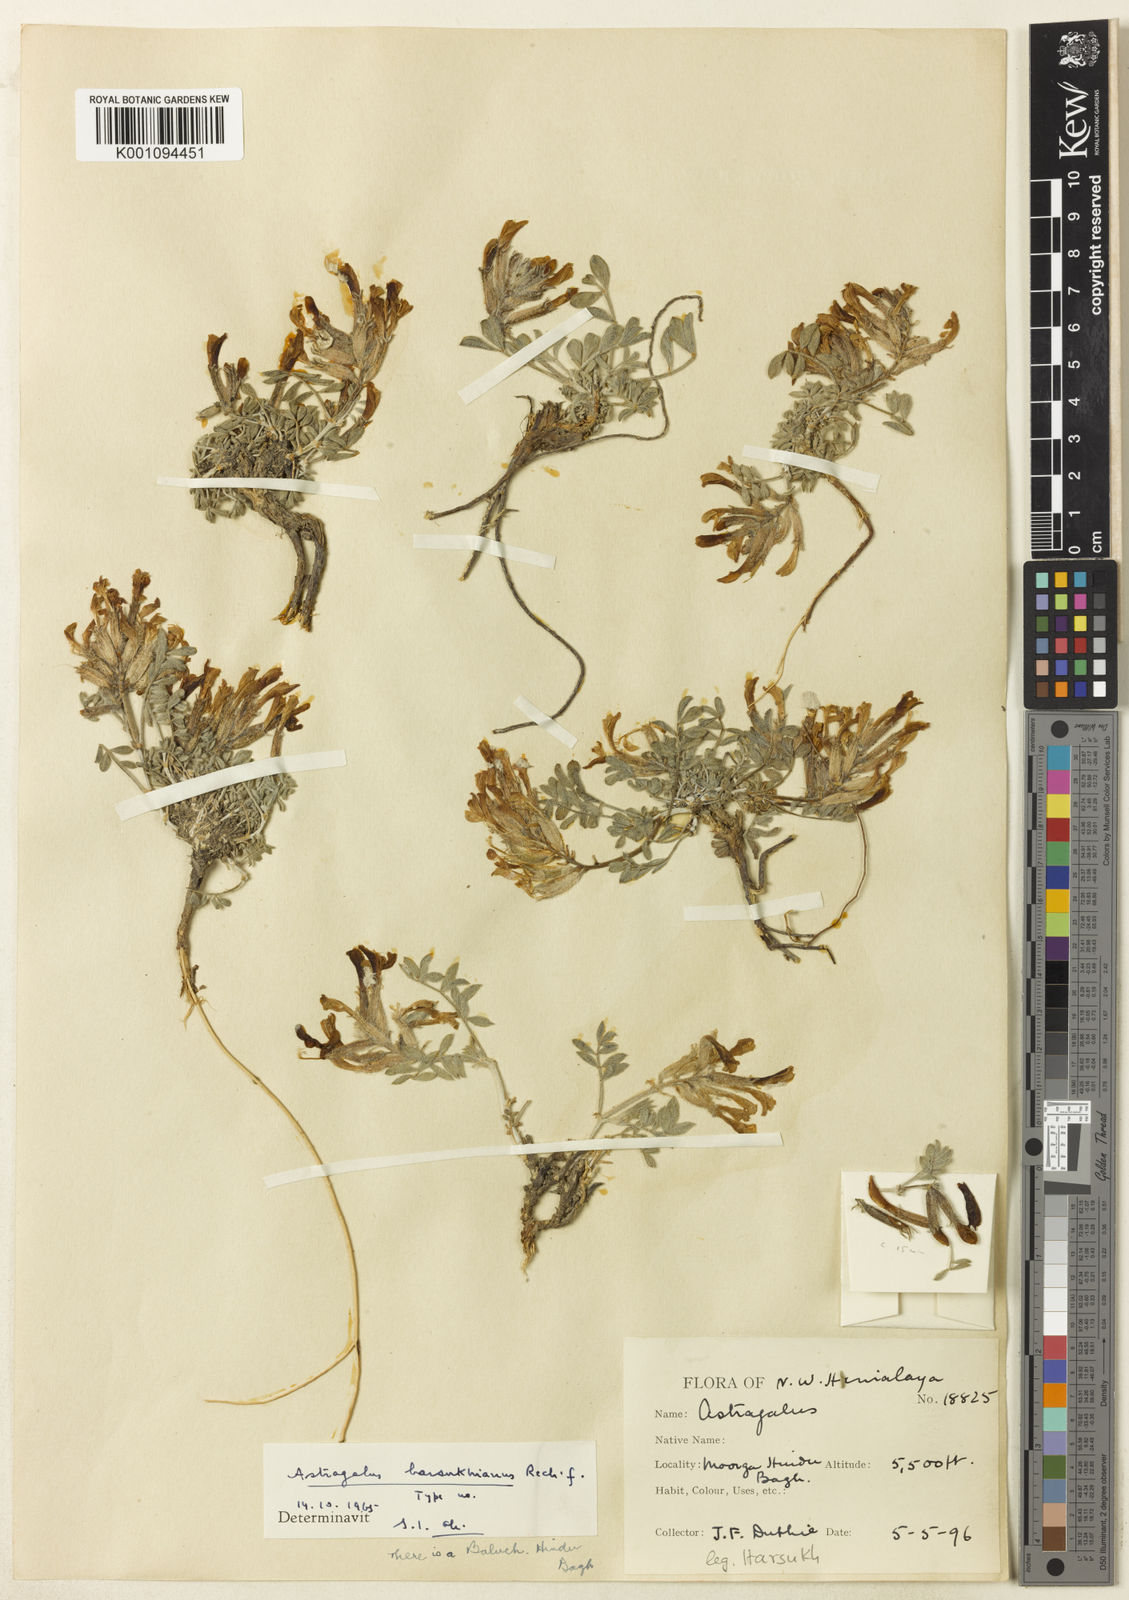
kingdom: Plantae
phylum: Tracheophyta
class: Magnoliopsida
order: Fabales
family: Fabaceae
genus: Astragalus
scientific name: Astragalus
